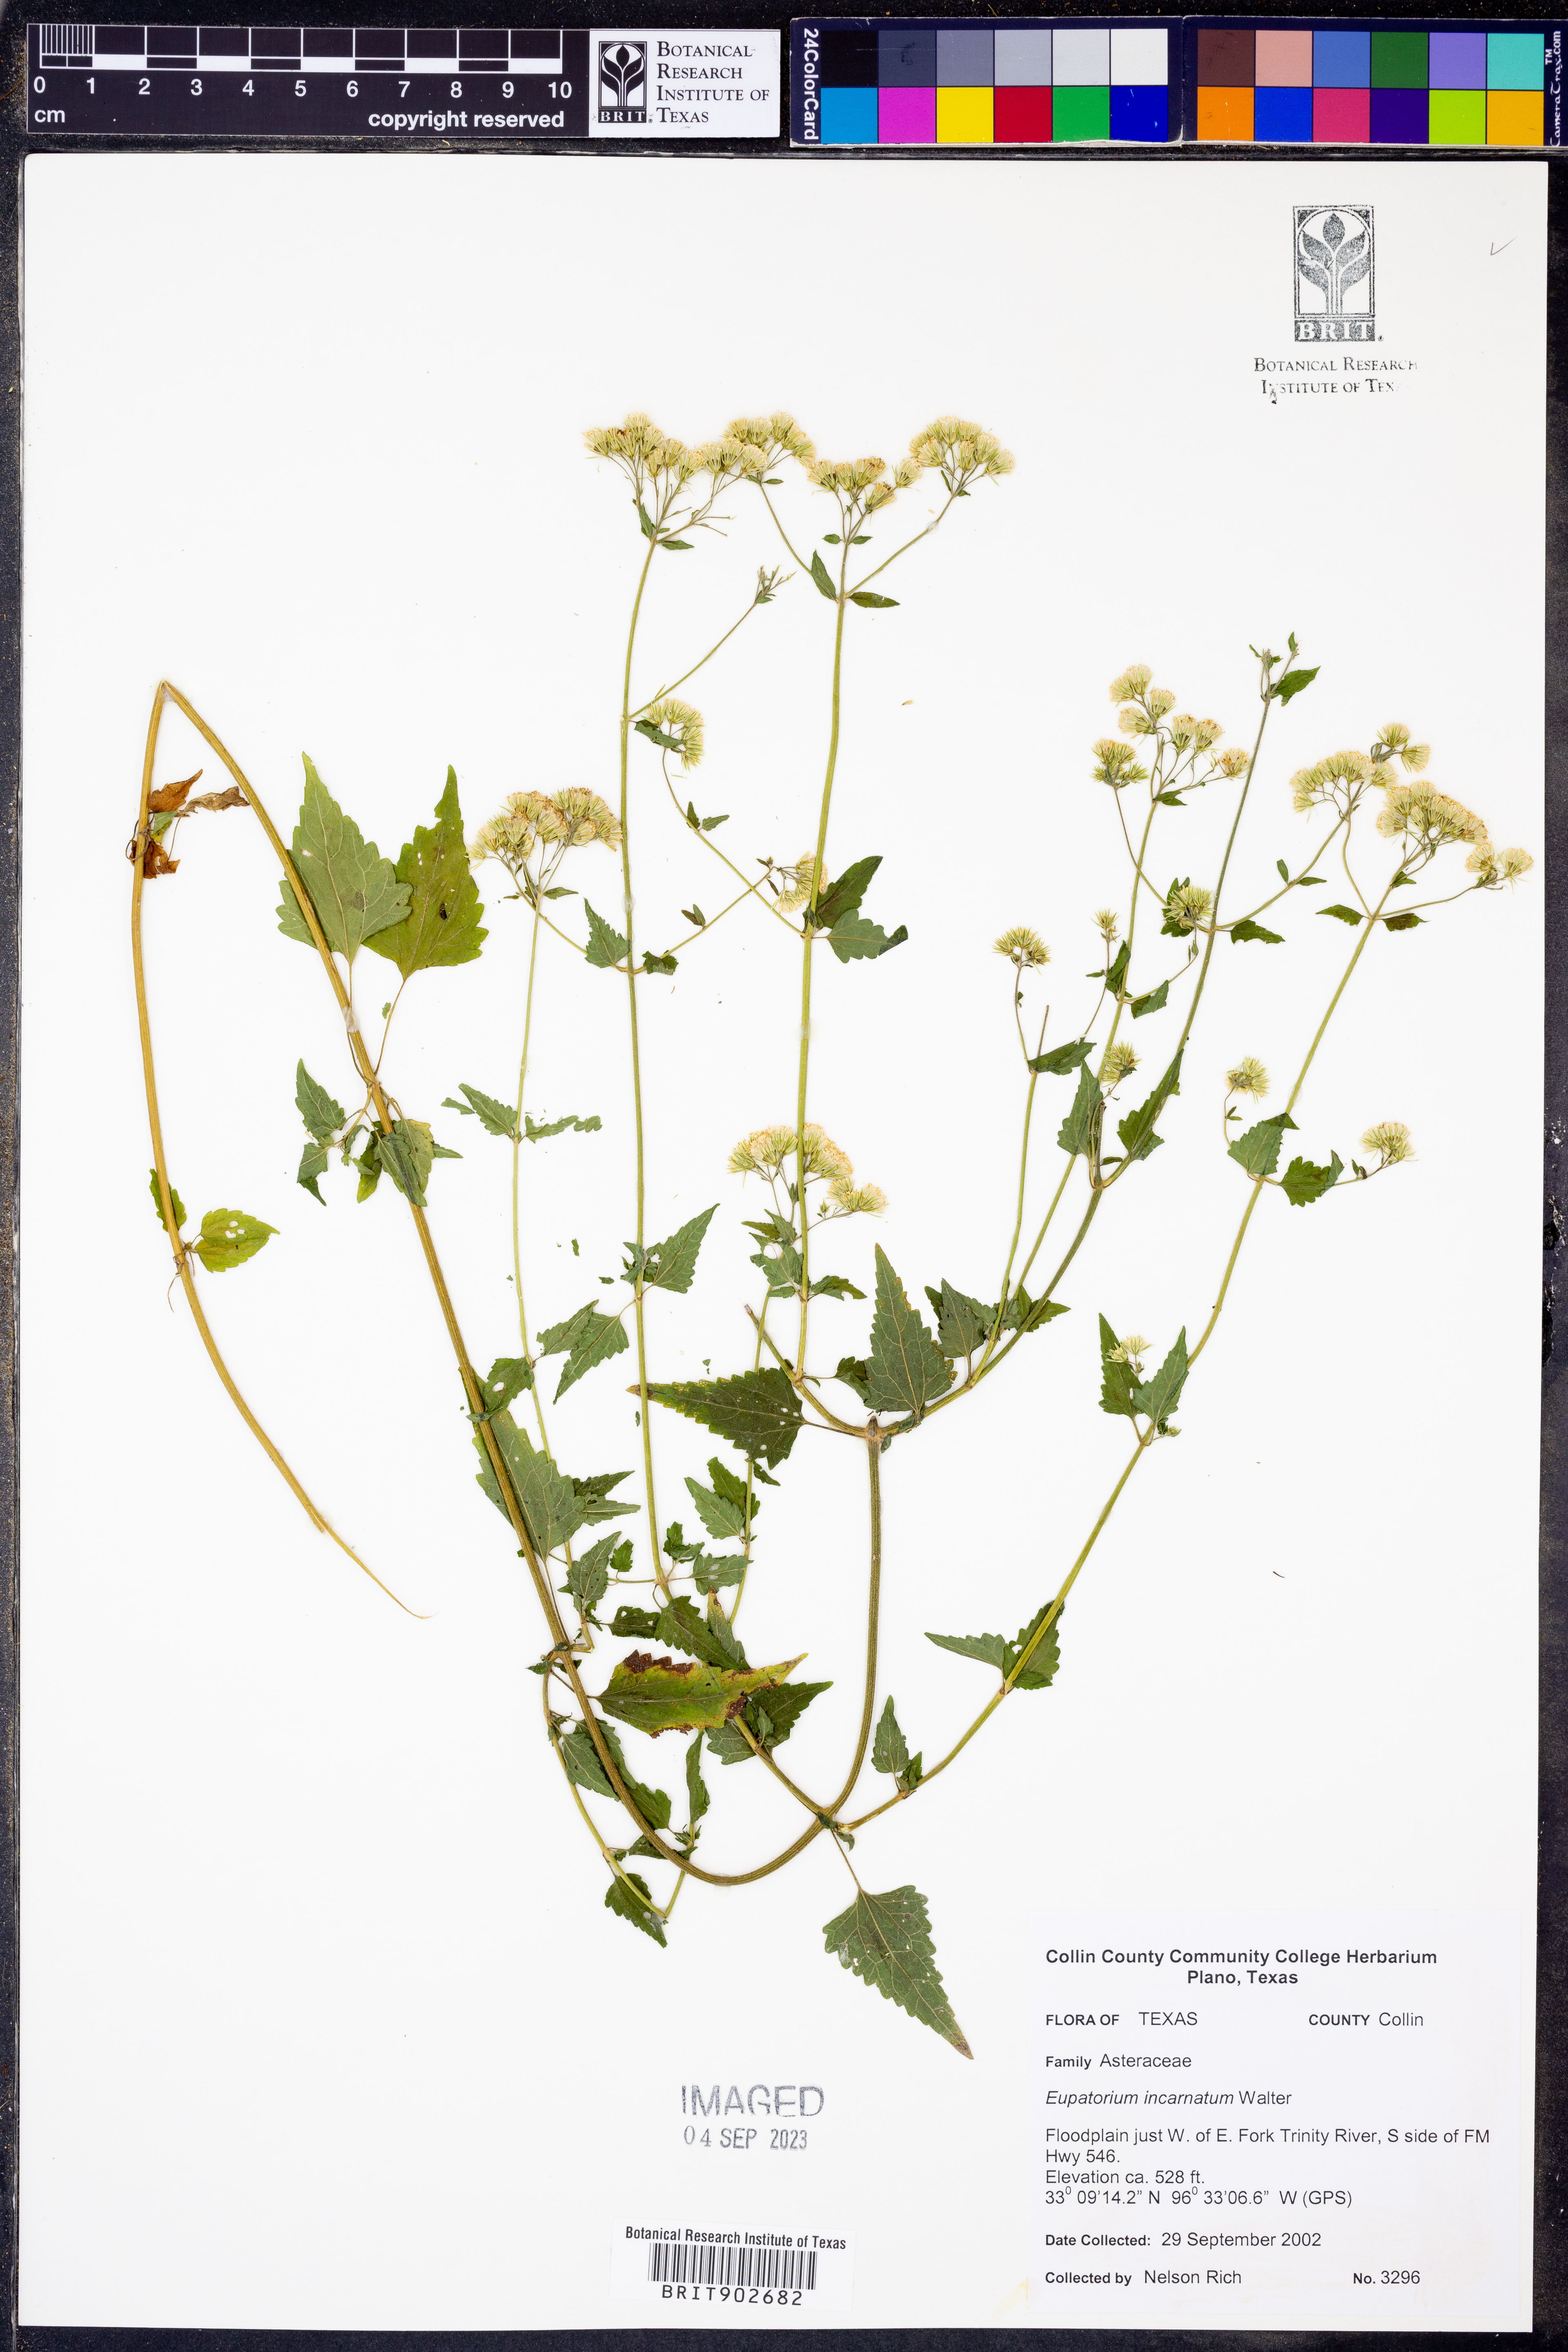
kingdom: Plantae
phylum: Tracheophyta
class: Magnoliopsida
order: Asterales
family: Asteraceae
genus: Fleischmannia
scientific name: Fleischmannia incarnata
